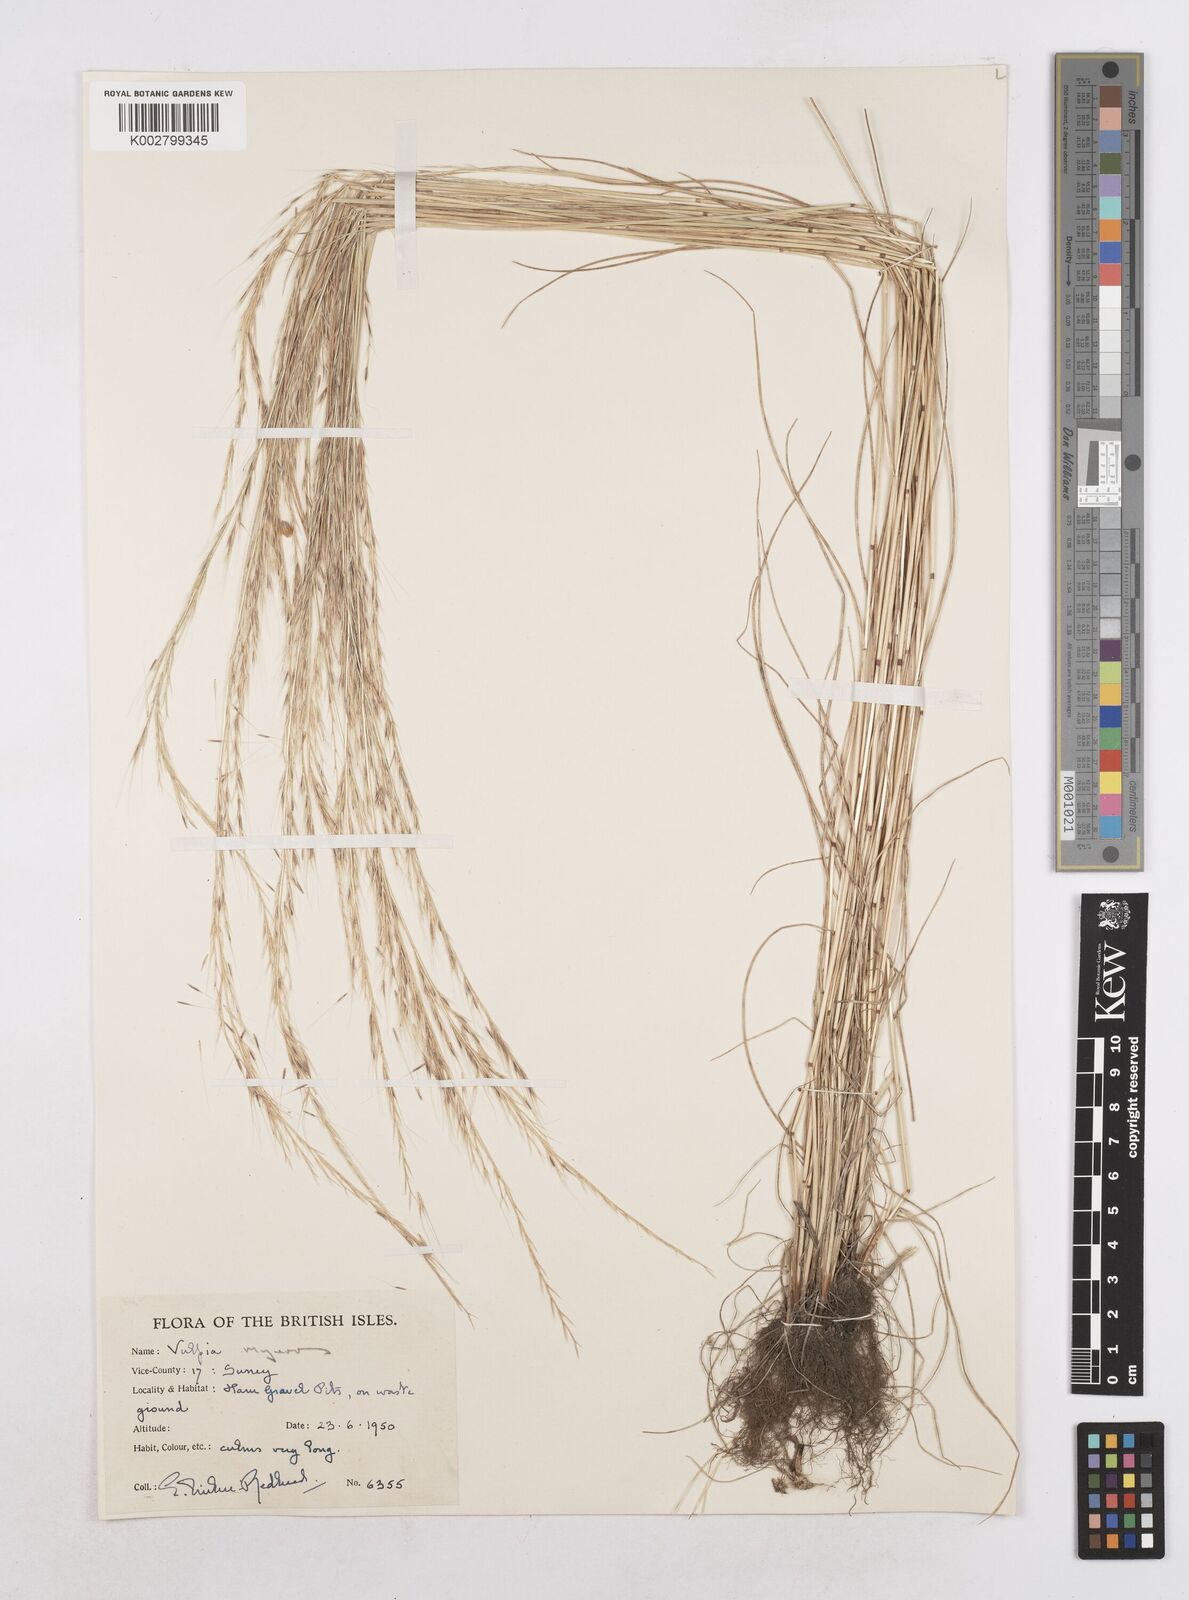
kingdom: Plantae
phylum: Tracheophyta
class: Liliopsida
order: Poales
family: Poaceae
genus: Festuca
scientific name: Festuca myuros
